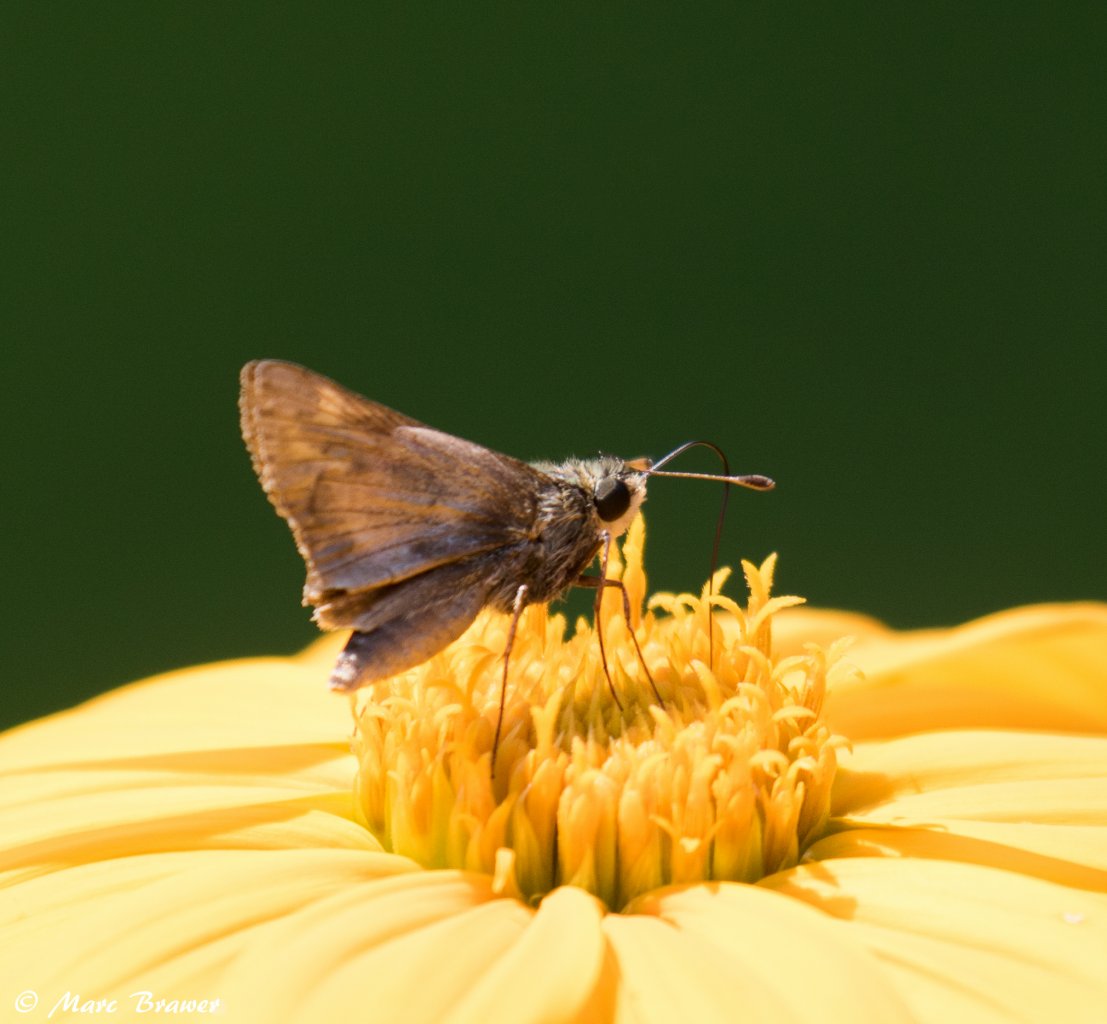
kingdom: Animalia
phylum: Arthropoda
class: Insecta
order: Lepidoptera
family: Hesperiidae
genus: Polites
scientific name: Polites themistocles
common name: Tawny-edged Skipper
